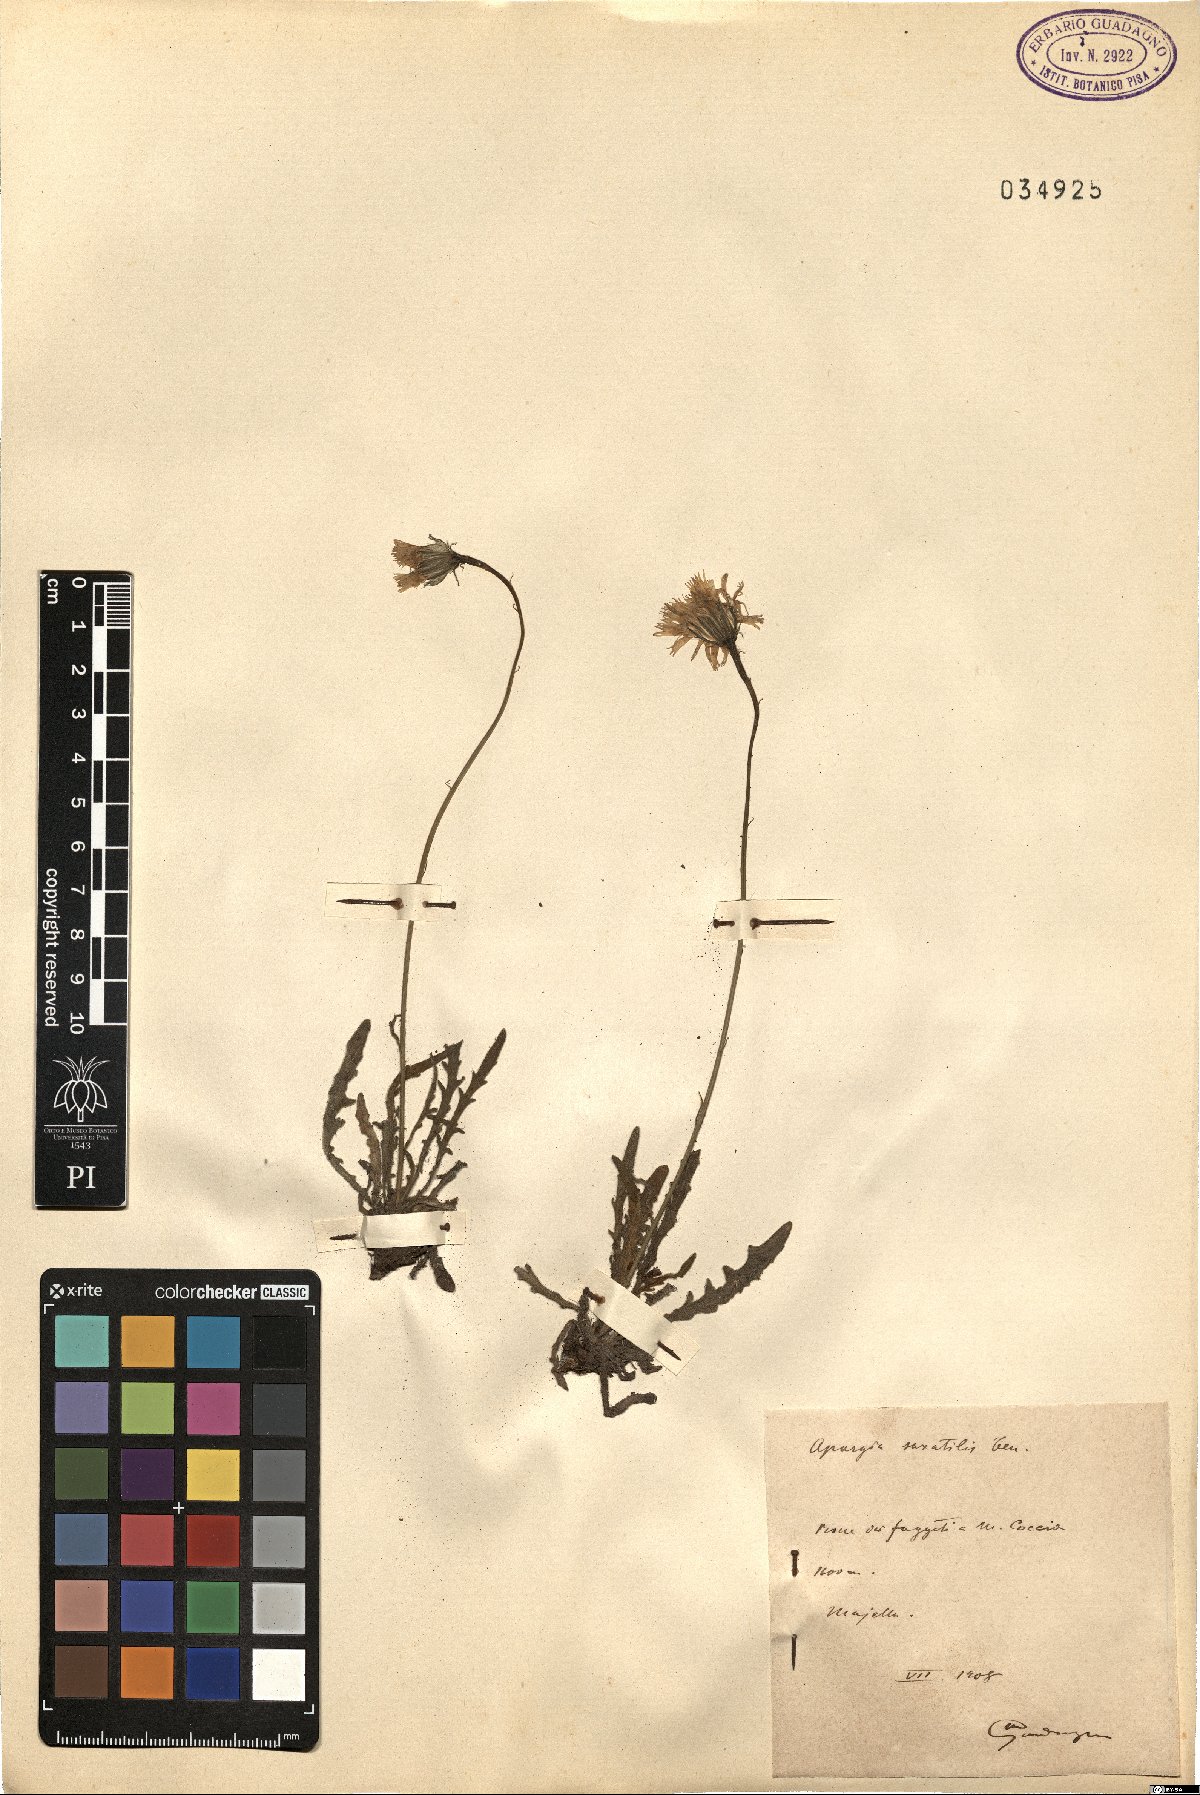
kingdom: Plantae
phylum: Tracheophyta
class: Magnoliopsida
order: Asterales
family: Asteraceae
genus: Leontodon
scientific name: Leontodon crispus
